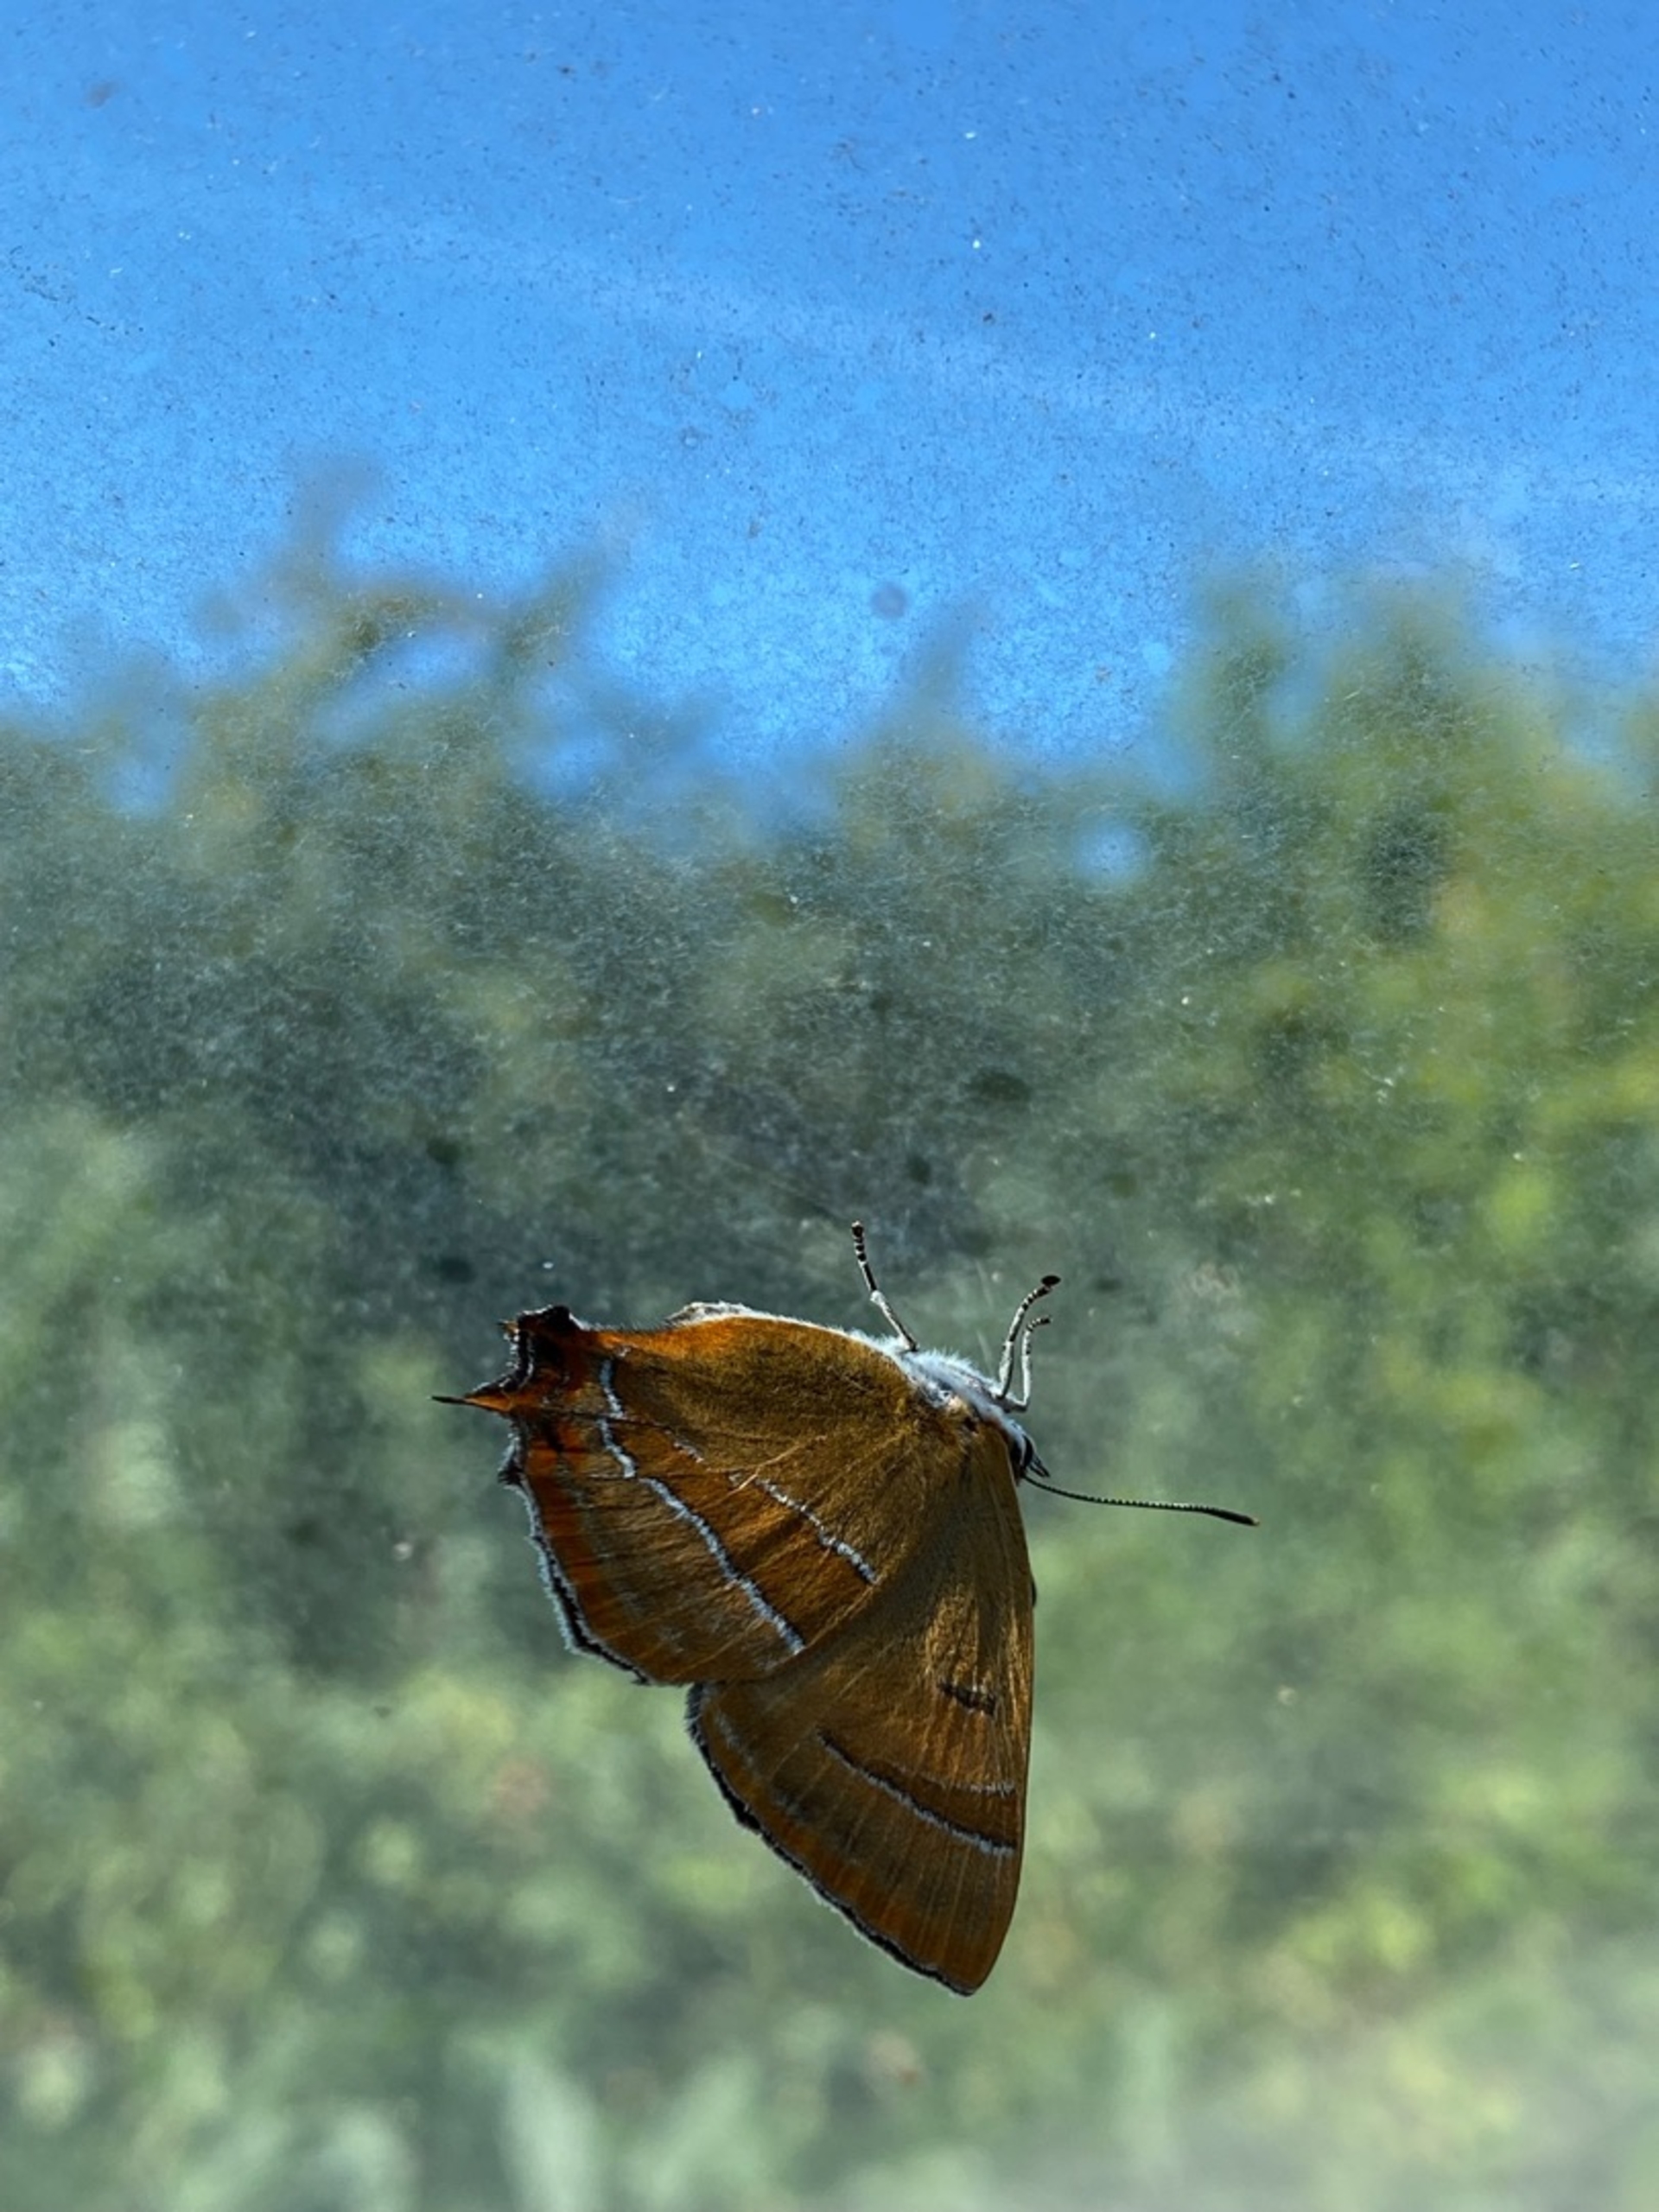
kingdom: Animalia
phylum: Arthropoda
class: Insecta
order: Lepidoptera
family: Lycaenidae
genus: Thecla
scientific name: Thecla betulae
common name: Guldhale
